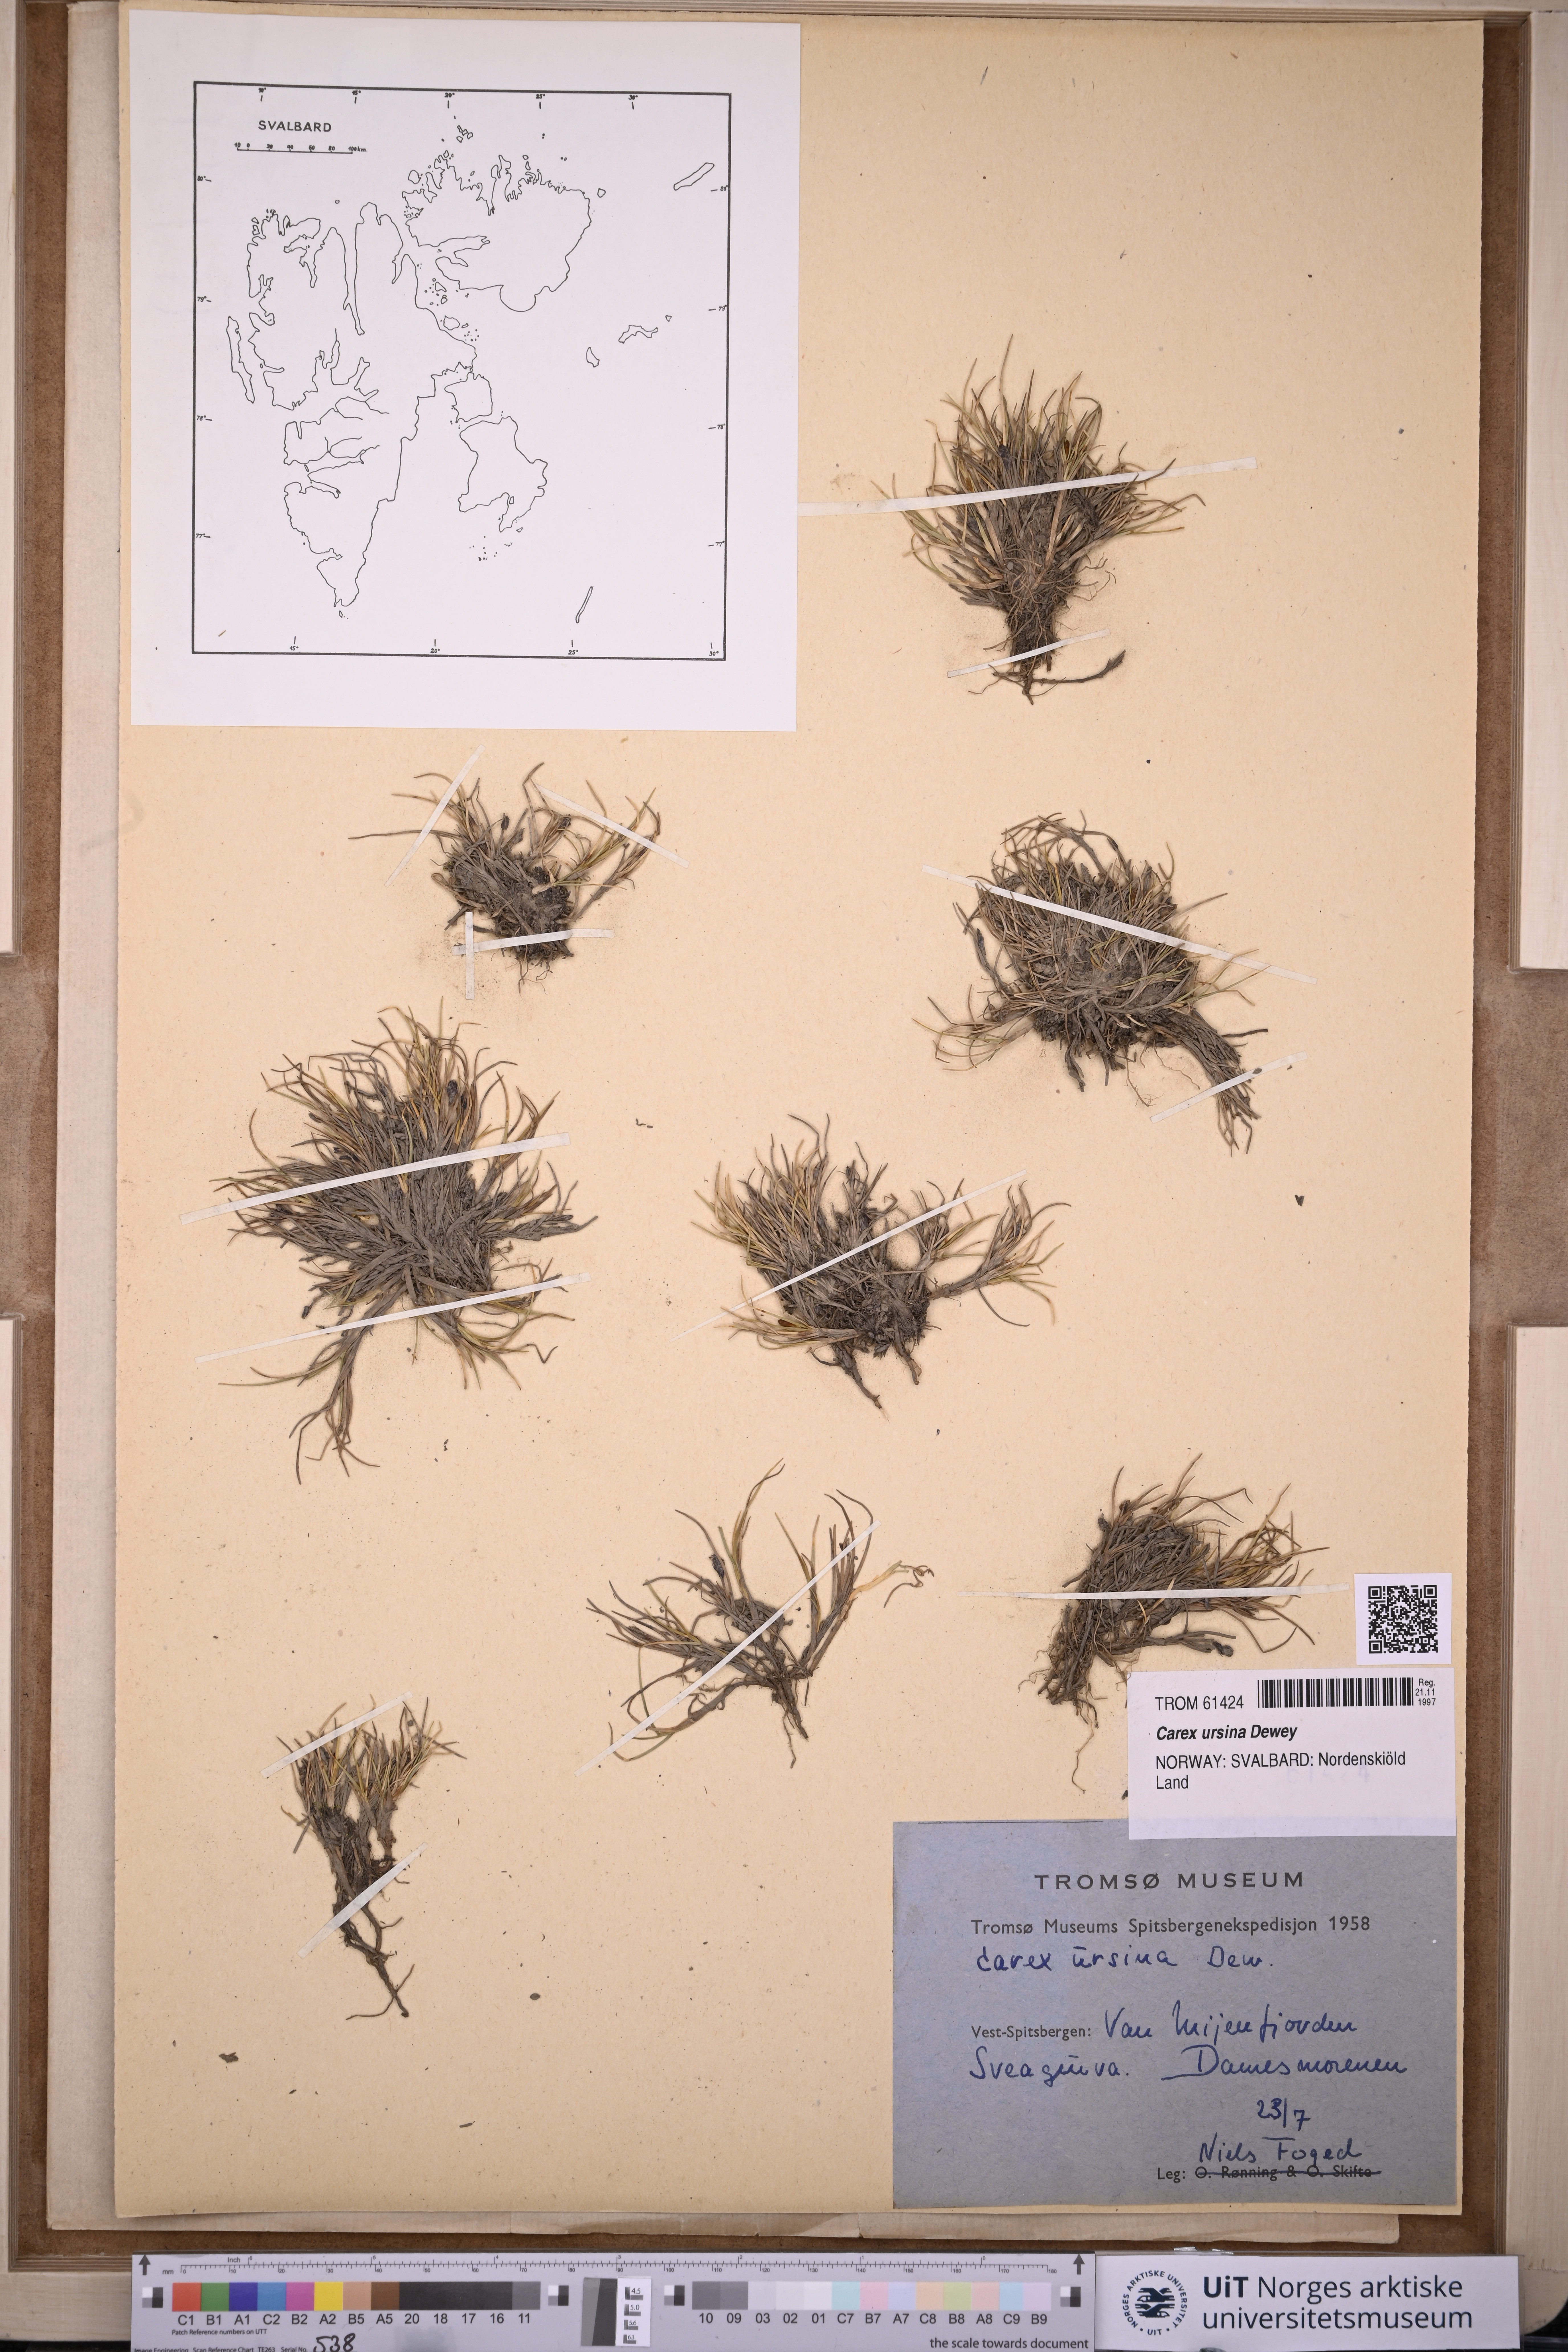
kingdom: Plantae
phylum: Tracheophyta
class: Liliopsida
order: Poales
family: Cyperaceae
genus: Carex
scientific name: Carex ursina
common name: Bear sedge
